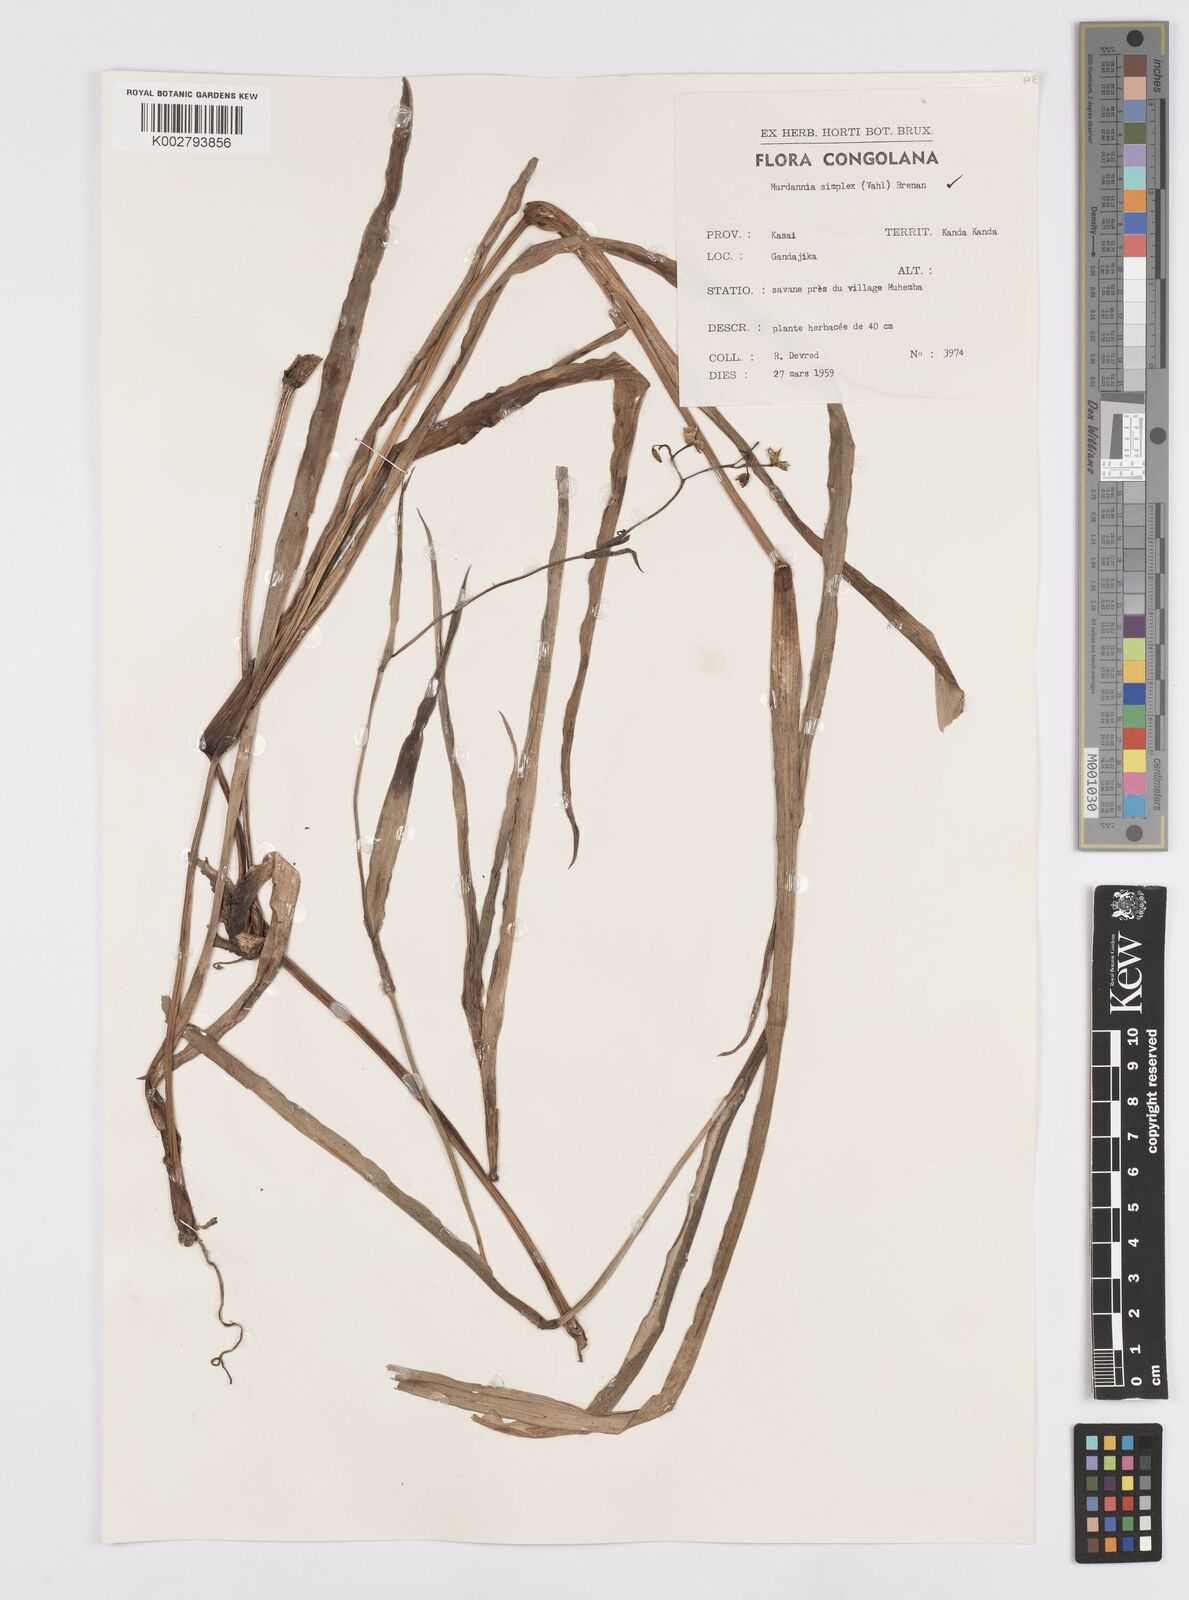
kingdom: Plantae
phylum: Tracheophyta
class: Liliopsida
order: Commelinales
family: Commelinaceae
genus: Murdannia
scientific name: Murdannia simplex
